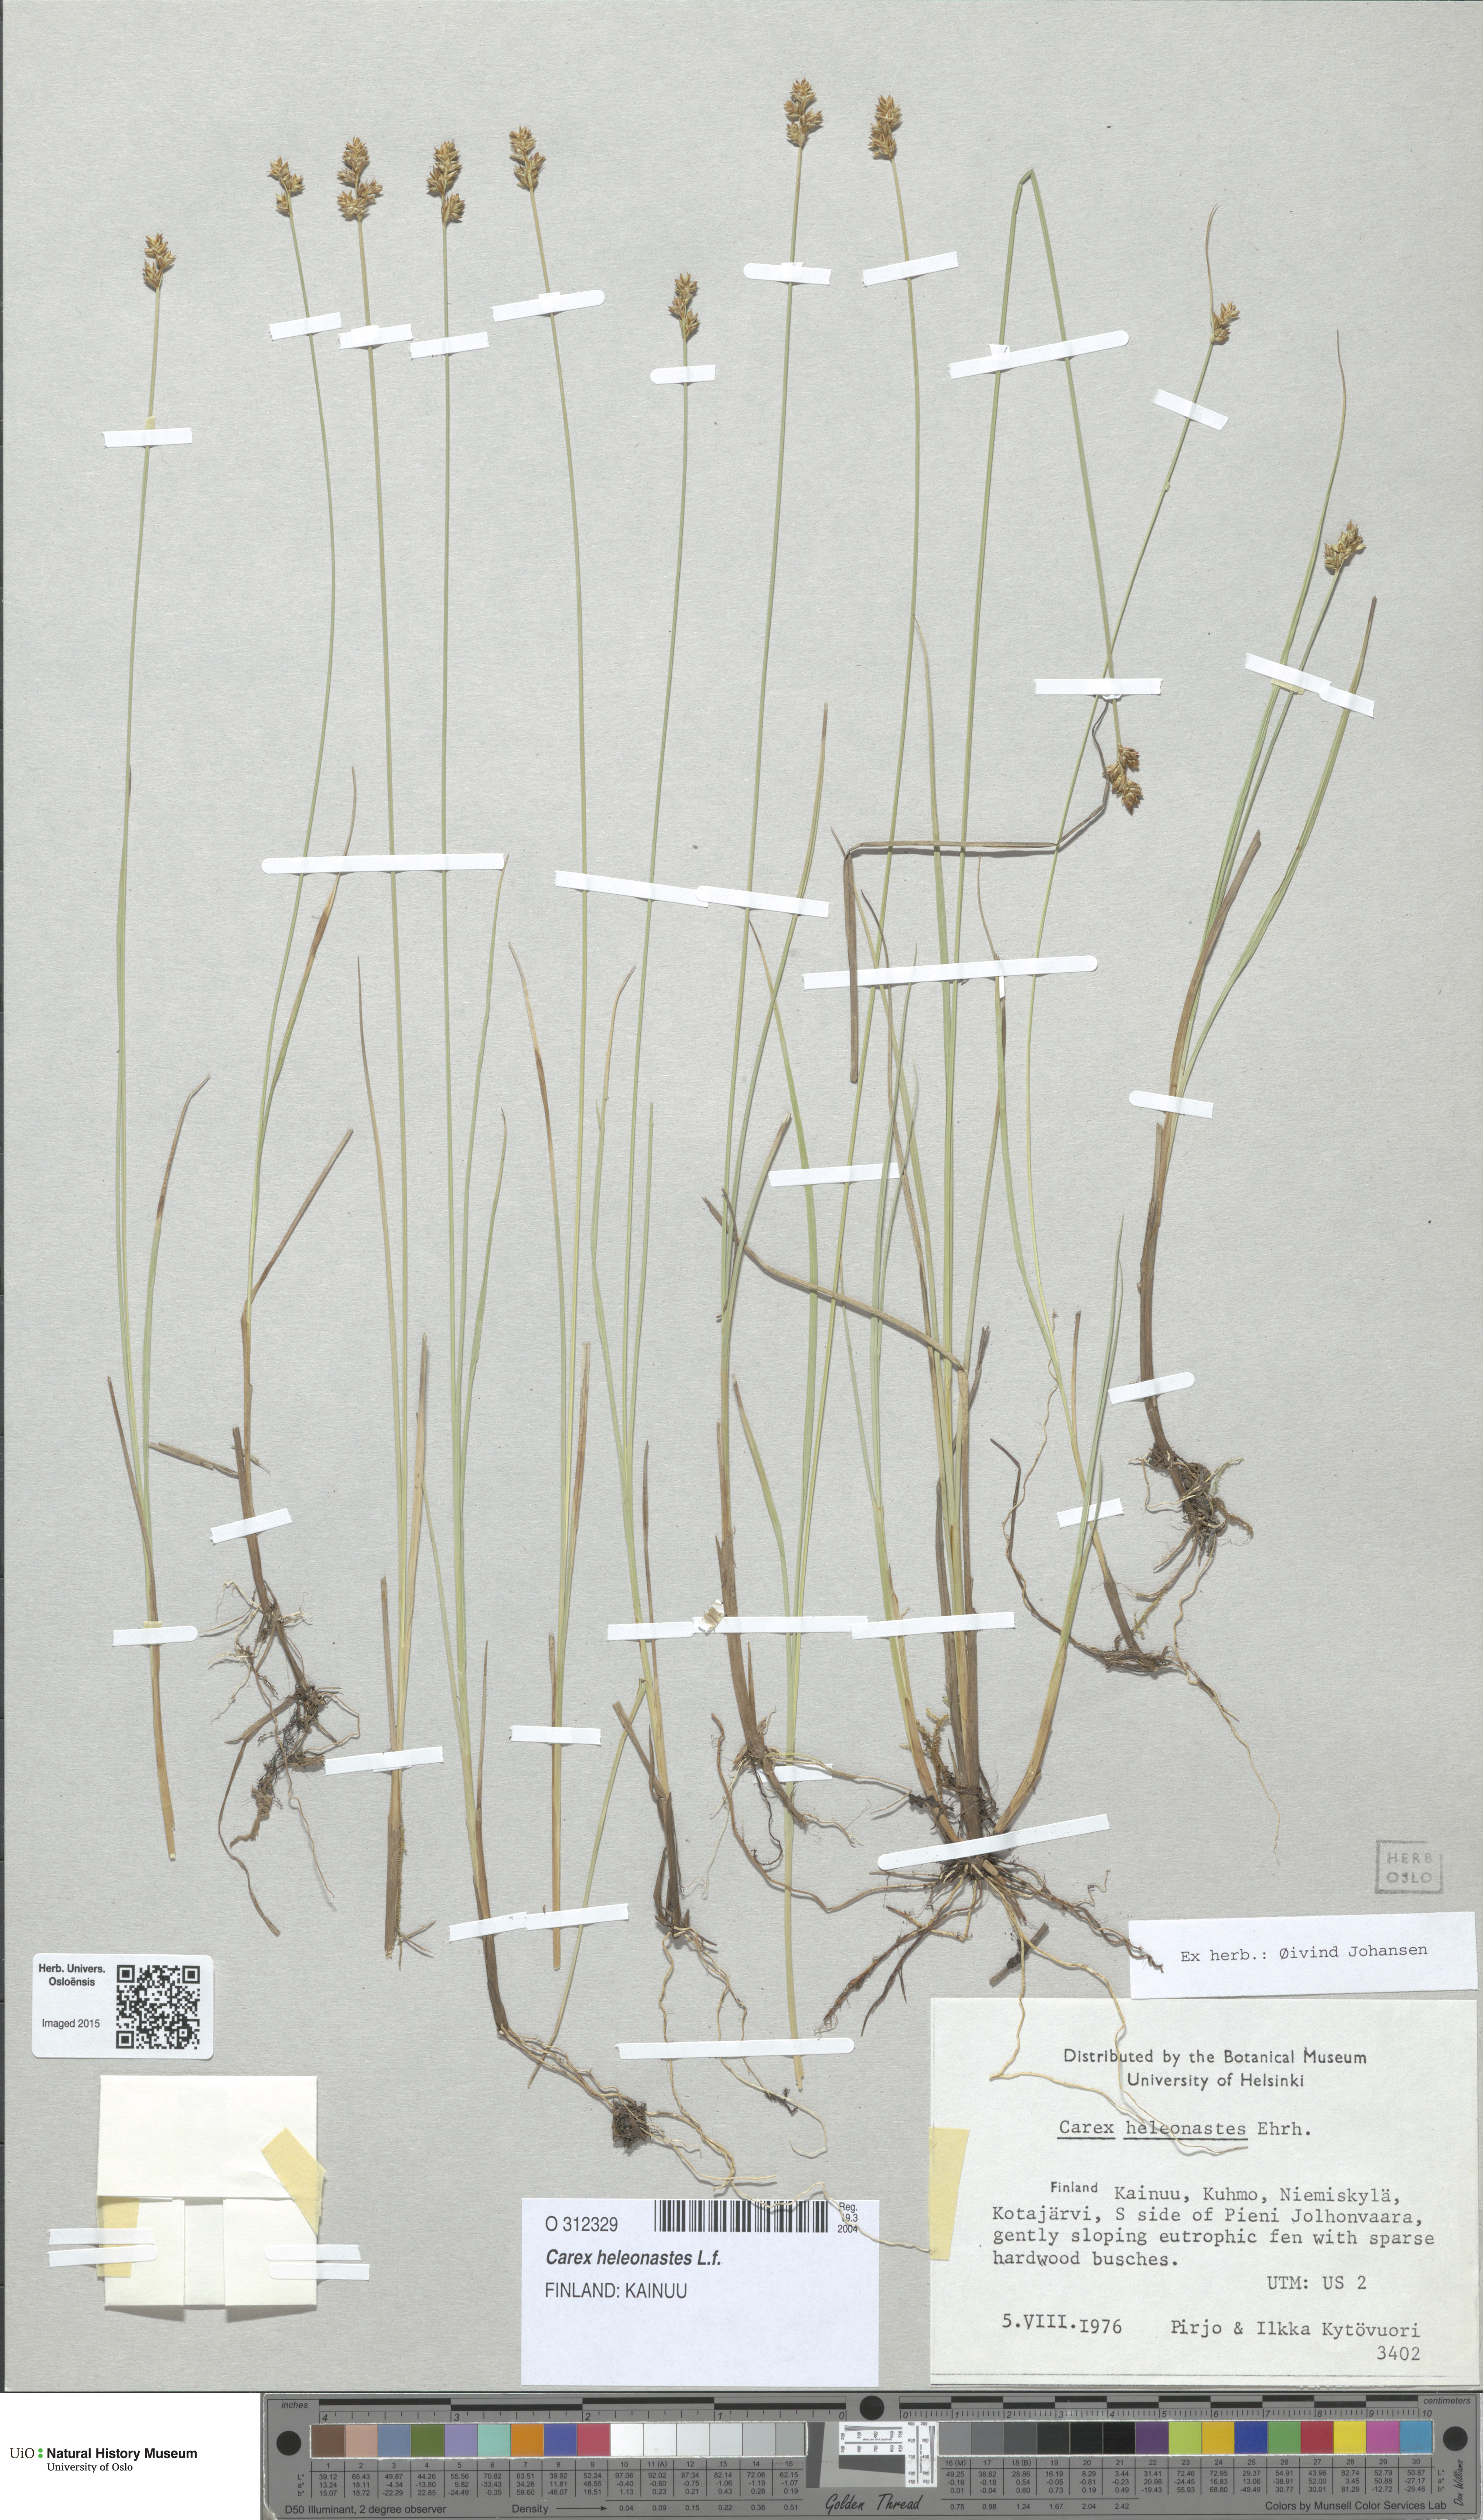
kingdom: Plantae
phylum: Tracheophyta
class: Liliopsida
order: Poales
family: Cyperaceae
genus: Carex
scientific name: Carex heleonastes
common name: Hudson bay sedge
